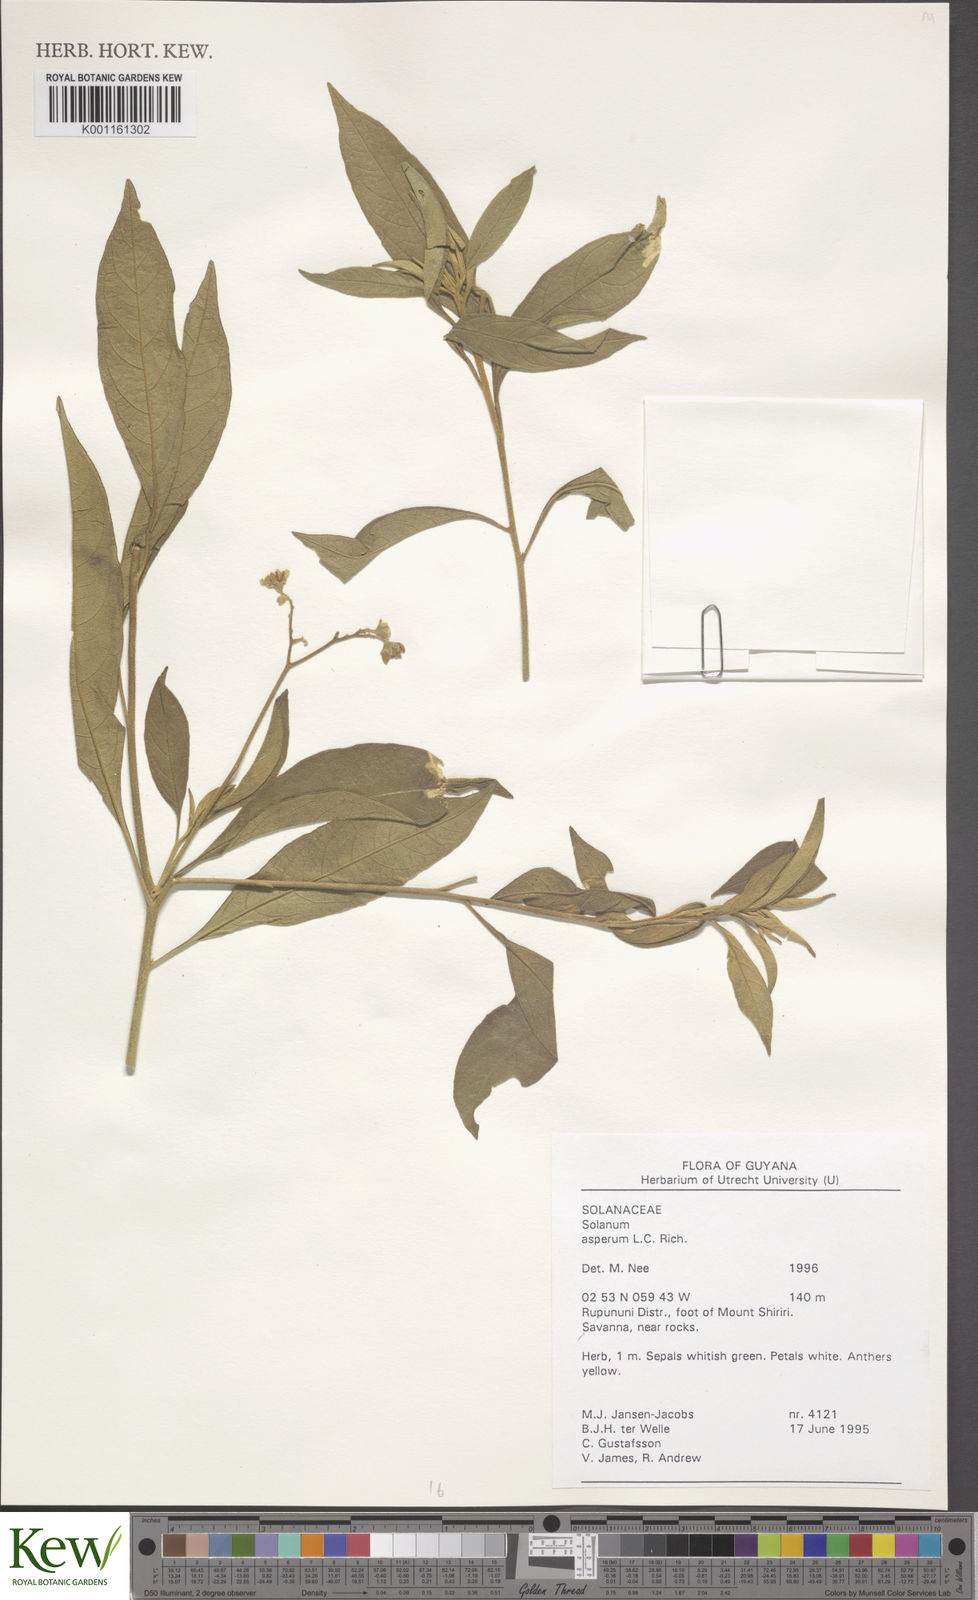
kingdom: Plantae
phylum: Tracheophyta
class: Magnoliopsida
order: Solanales
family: Solanaceae
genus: Solanum
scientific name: Solanum asperum
